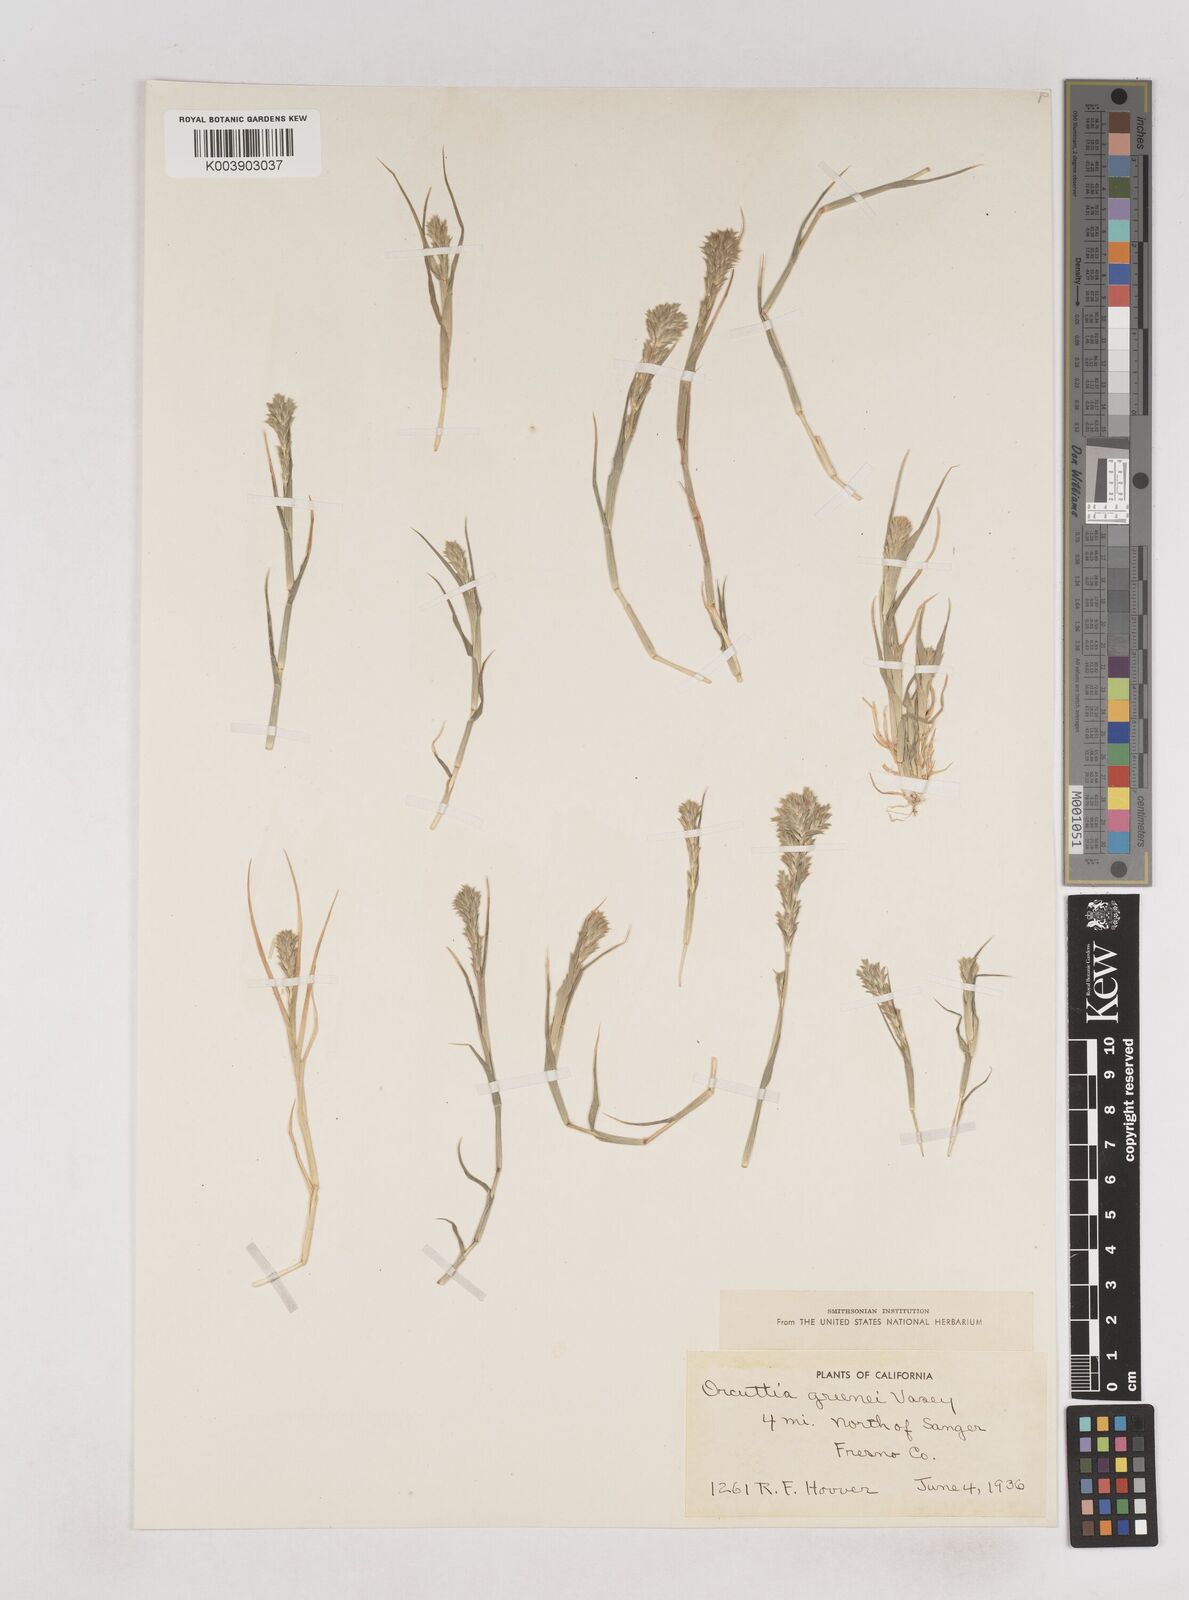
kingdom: Plantae
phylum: Tracheophyta
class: Liliopsida
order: Poales
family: Poaceae
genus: Tuctoria
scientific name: Tuctoria greenei
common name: Awnless spiral grass
